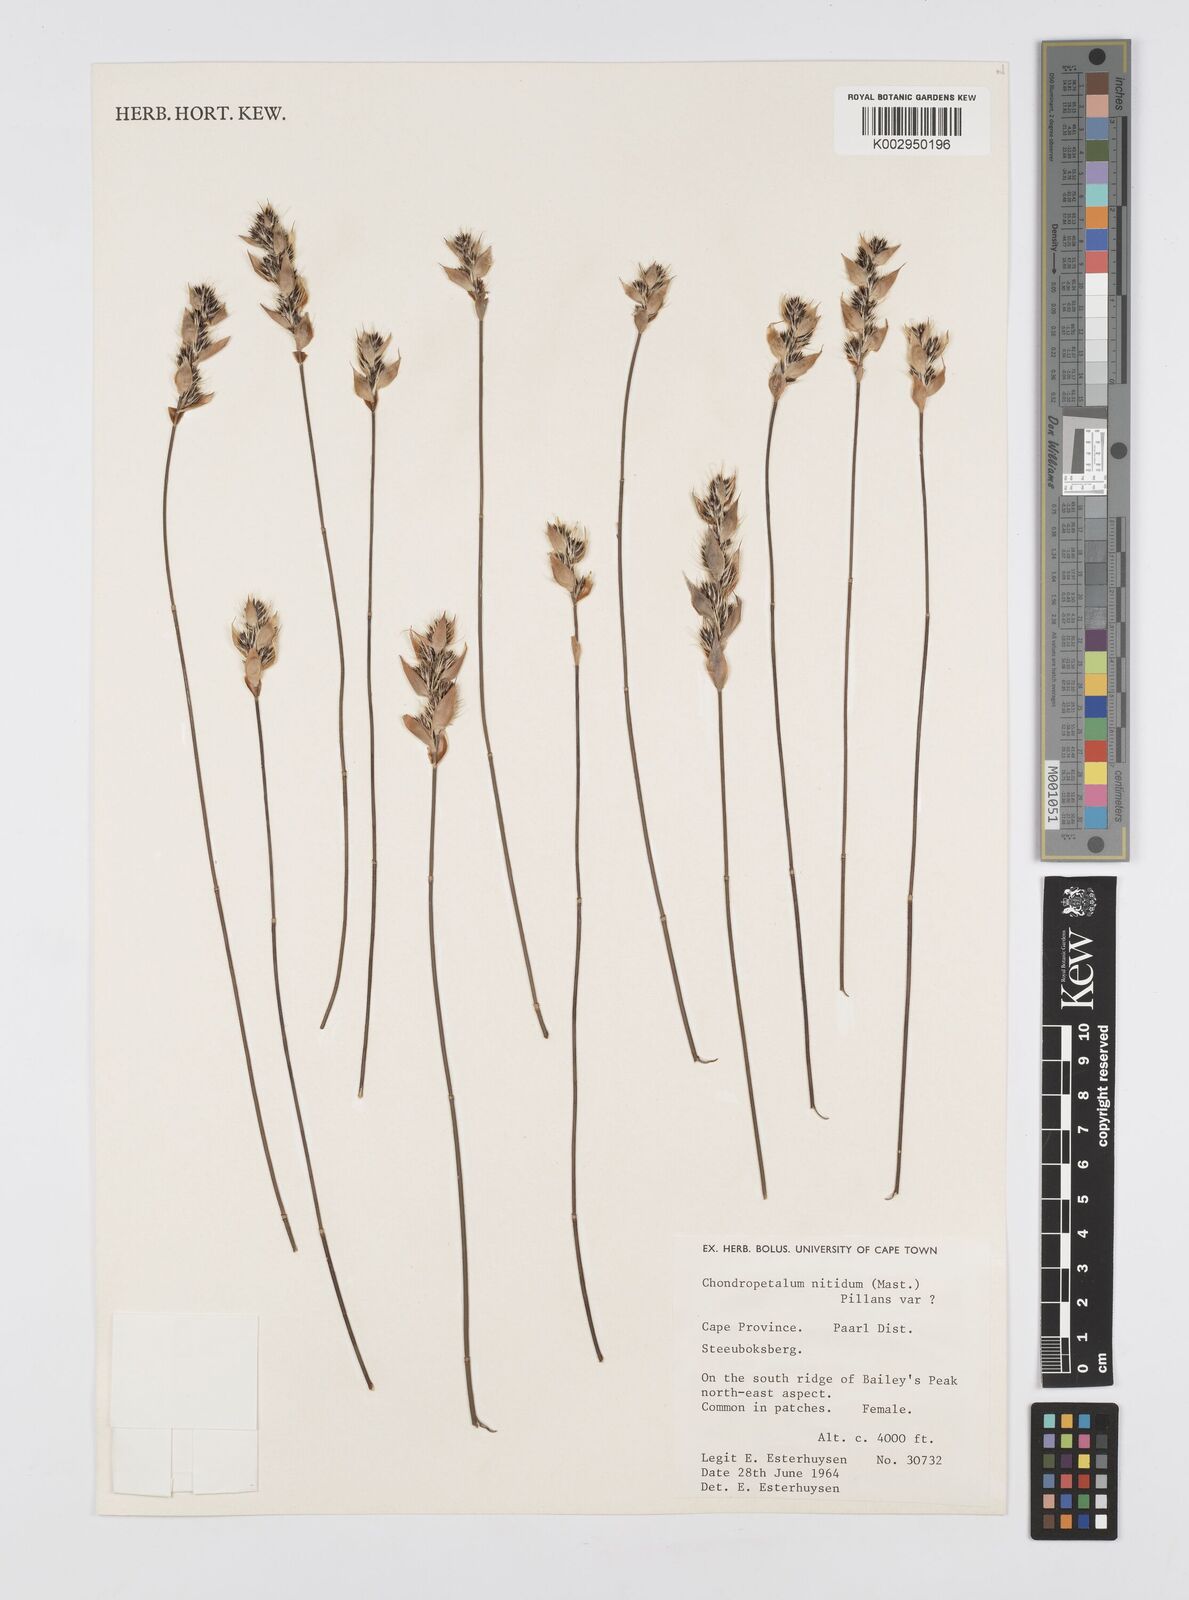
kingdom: Plantae
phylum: Tracheophyta
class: Liliopsida
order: Poales
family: Restionaceae
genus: Askidiosperma
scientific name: Askidiosperma nitidum
